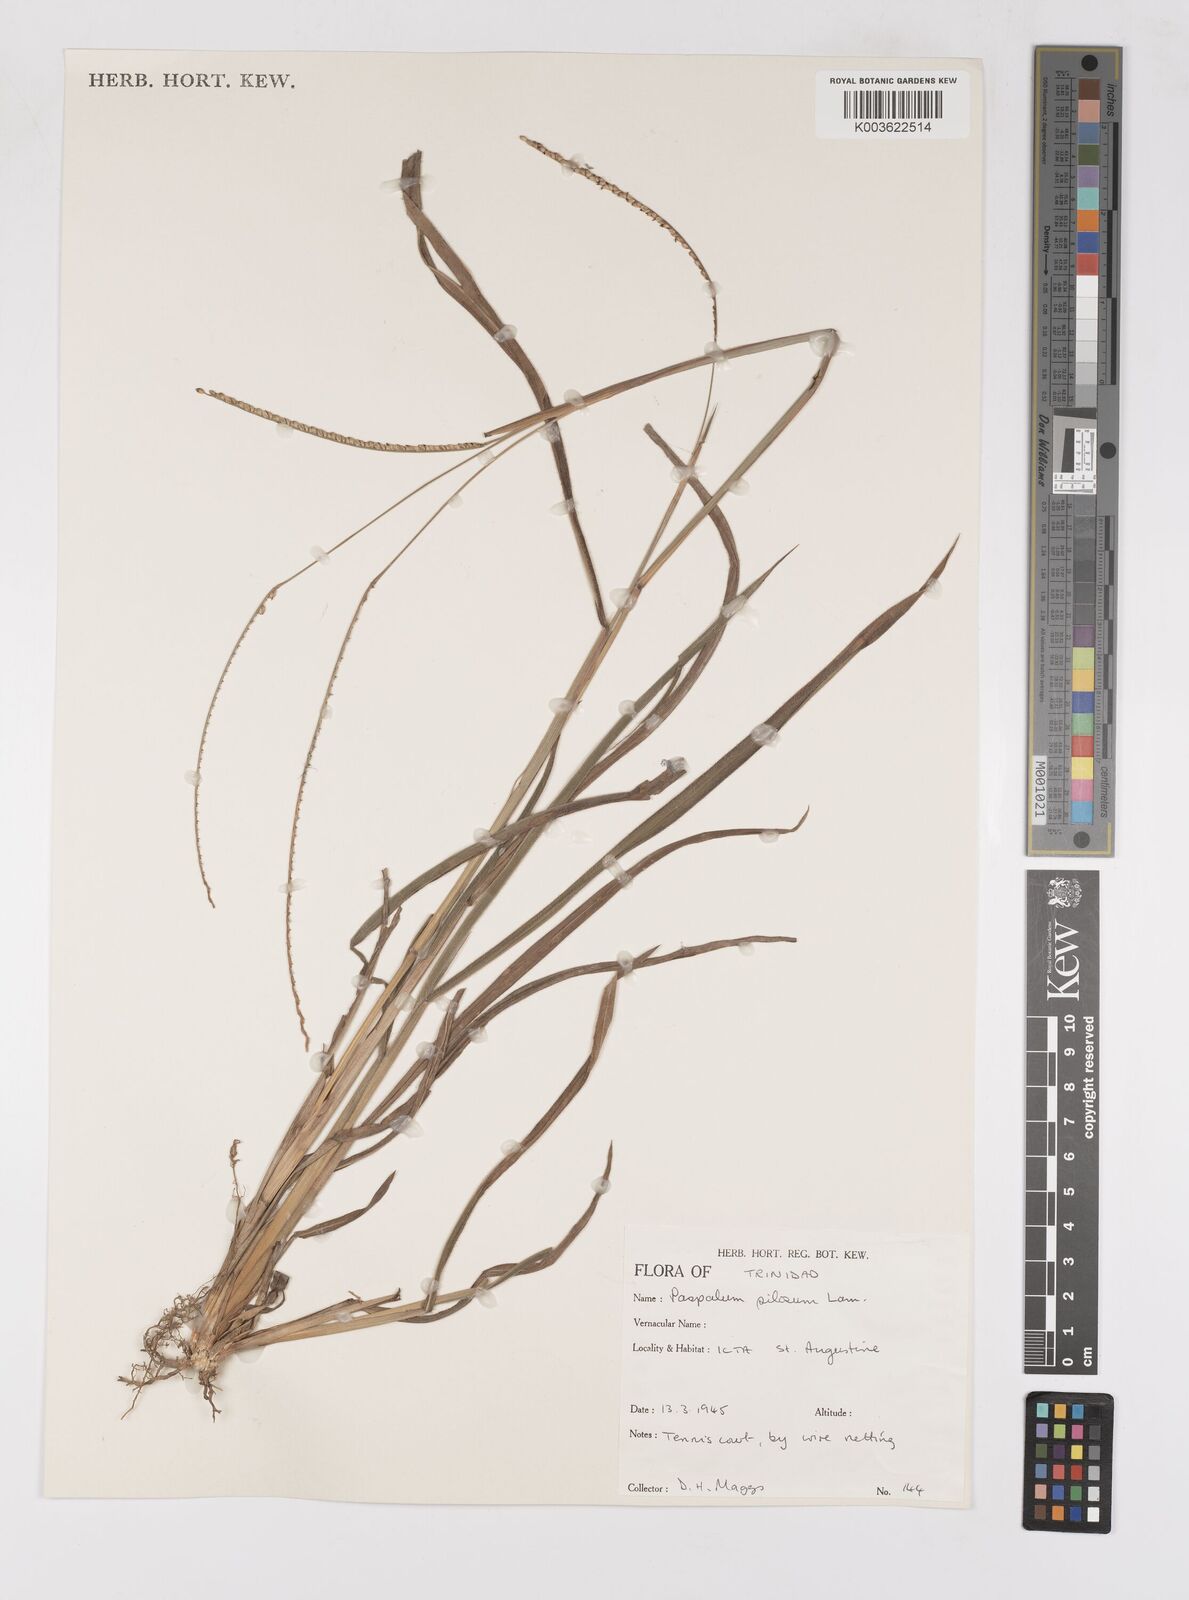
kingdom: Plantae
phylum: Tracheophyta
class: Liliopsida
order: Poales
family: Poaceae
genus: Paspalum
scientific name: Paspalum pilosum
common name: Crowngrass
